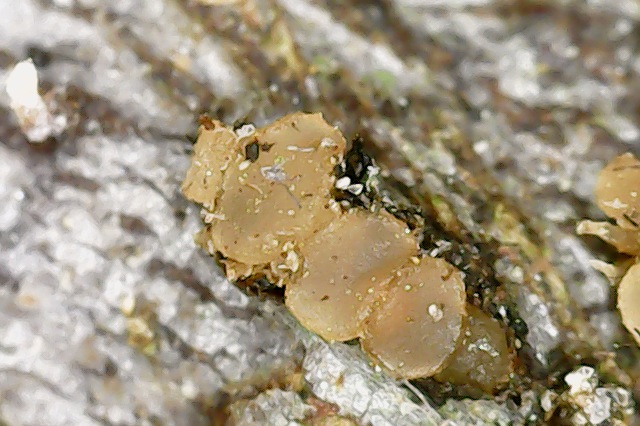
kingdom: Fungi
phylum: Ascomycota
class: Sordariomycetes
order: Hypocreales
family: Cordycipitaceae
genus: Isaria
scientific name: Isaria friesii
